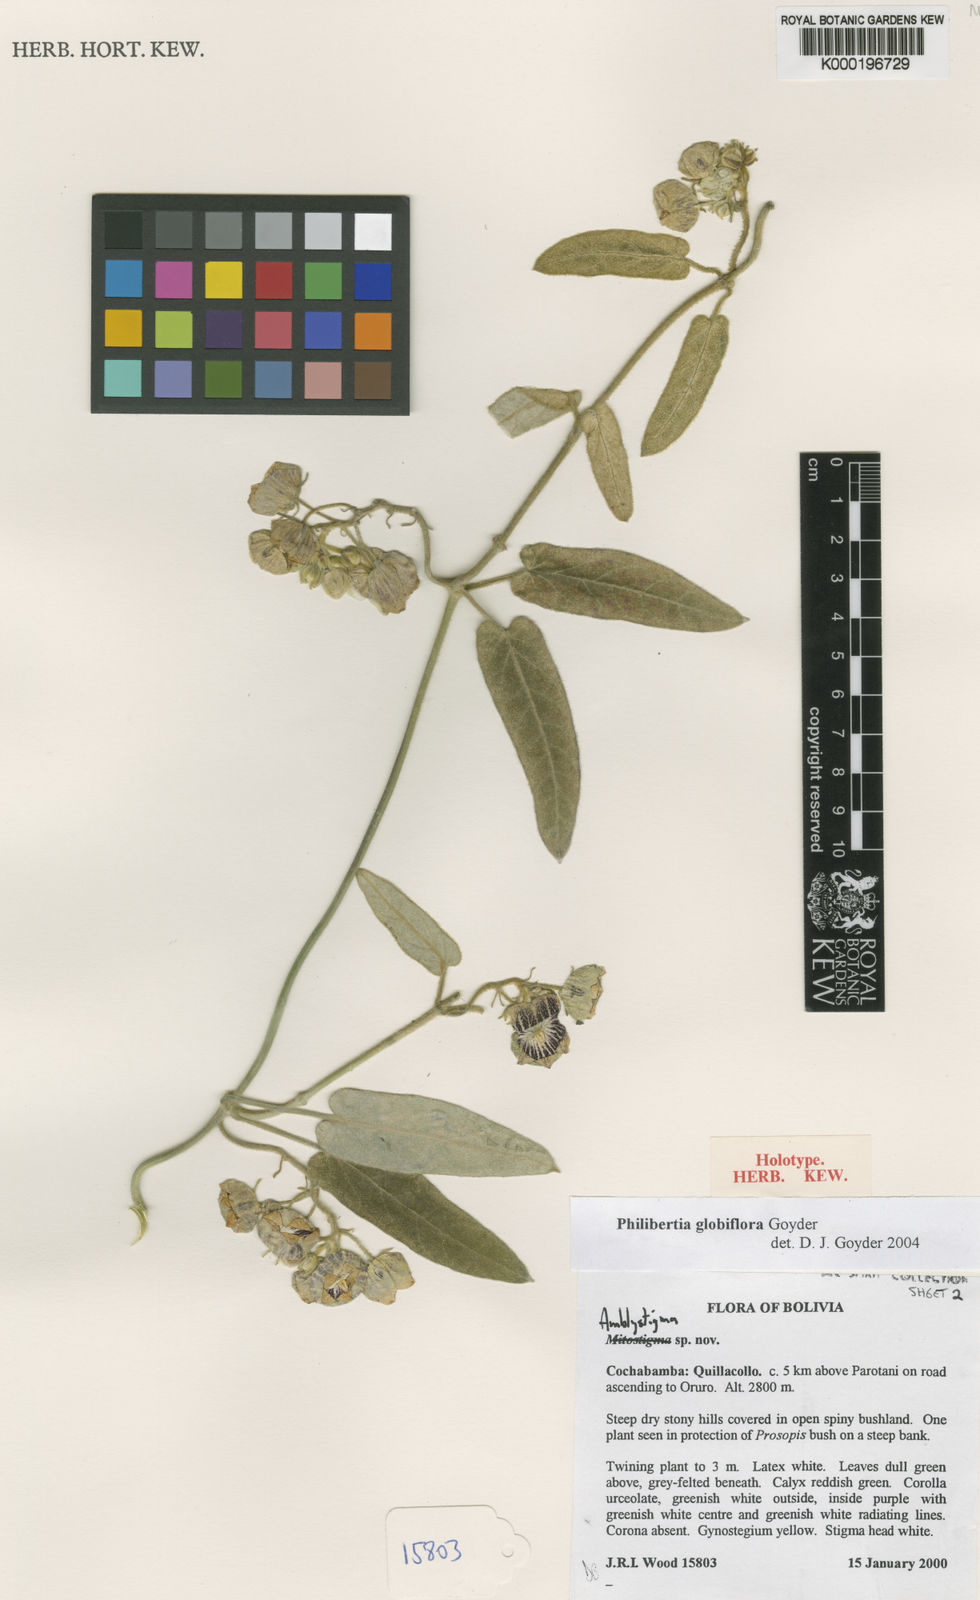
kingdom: Plantae
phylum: Tracheophyta
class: Magnoliopsida
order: Gentianales
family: Apocynaceae
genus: Philibertia
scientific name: Philibertia globiflora
